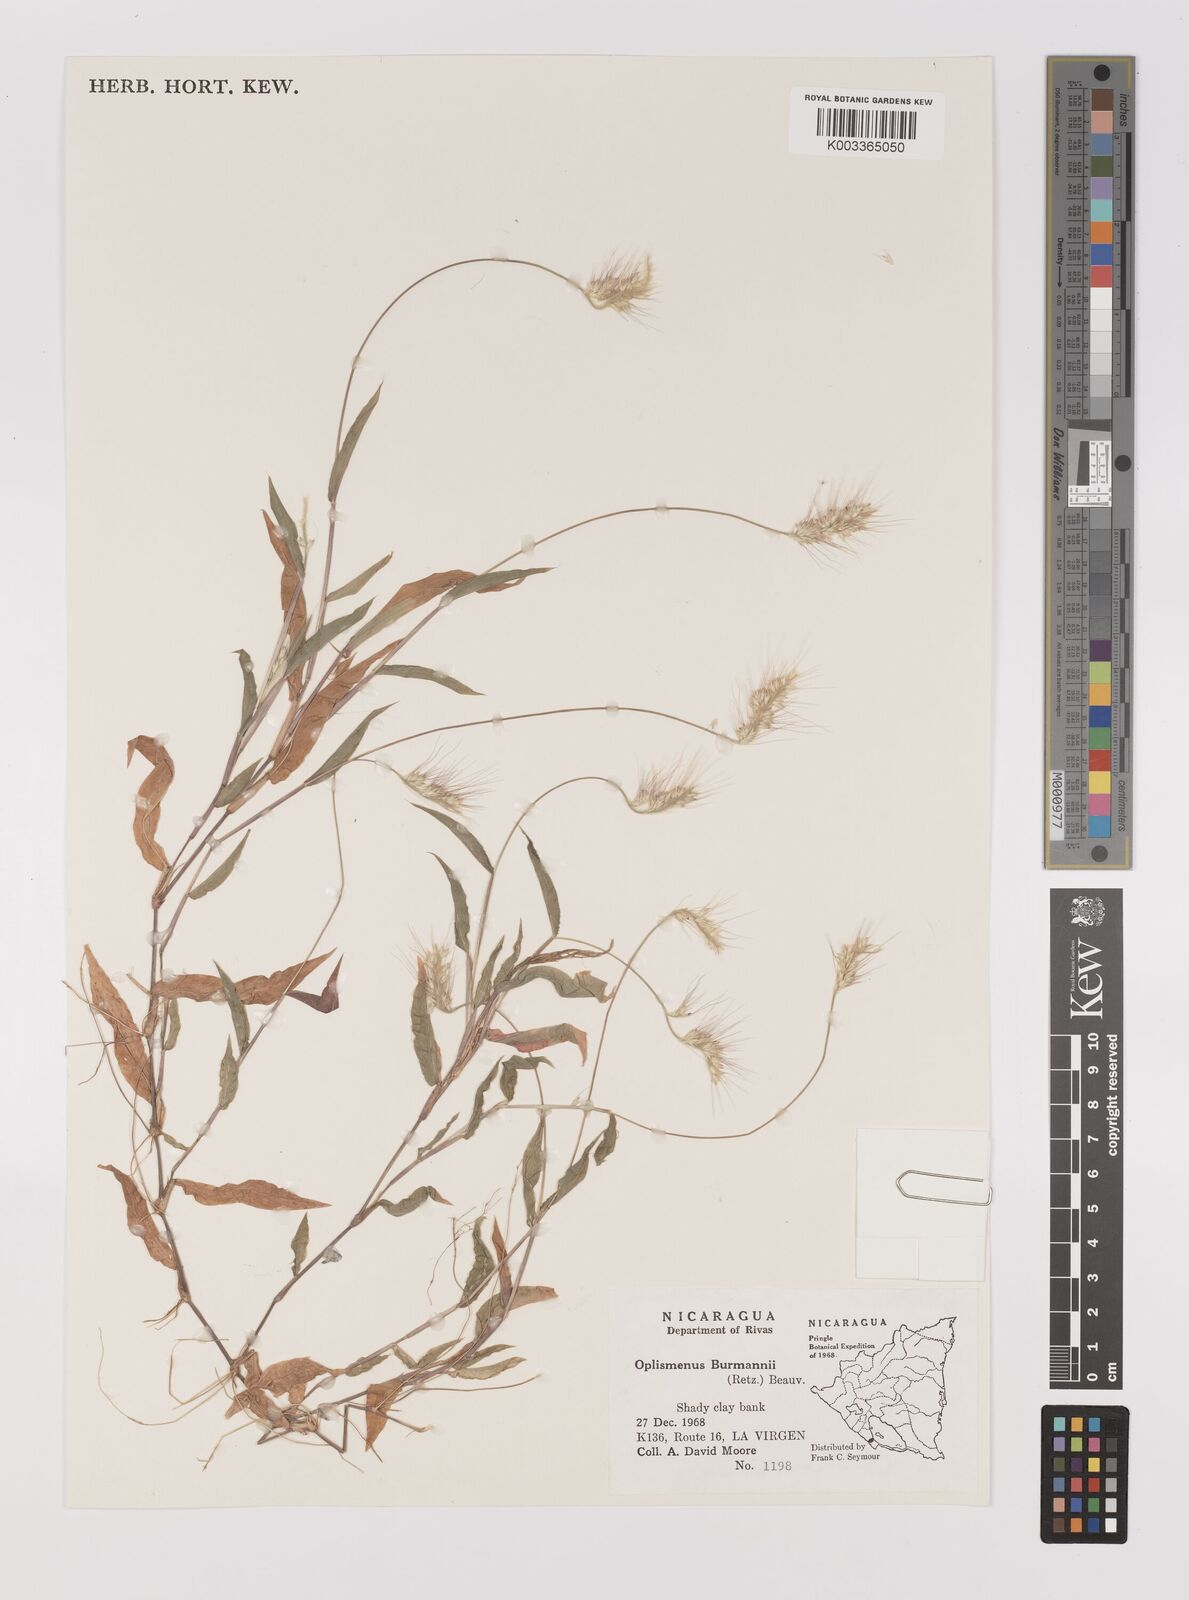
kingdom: Plantae
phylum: Tracheophyta
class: Liliopsida
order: Poales
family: Poaceae
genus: Oplismenus
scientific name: Oplismenus burmanni
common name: Burmann's basketgrass
